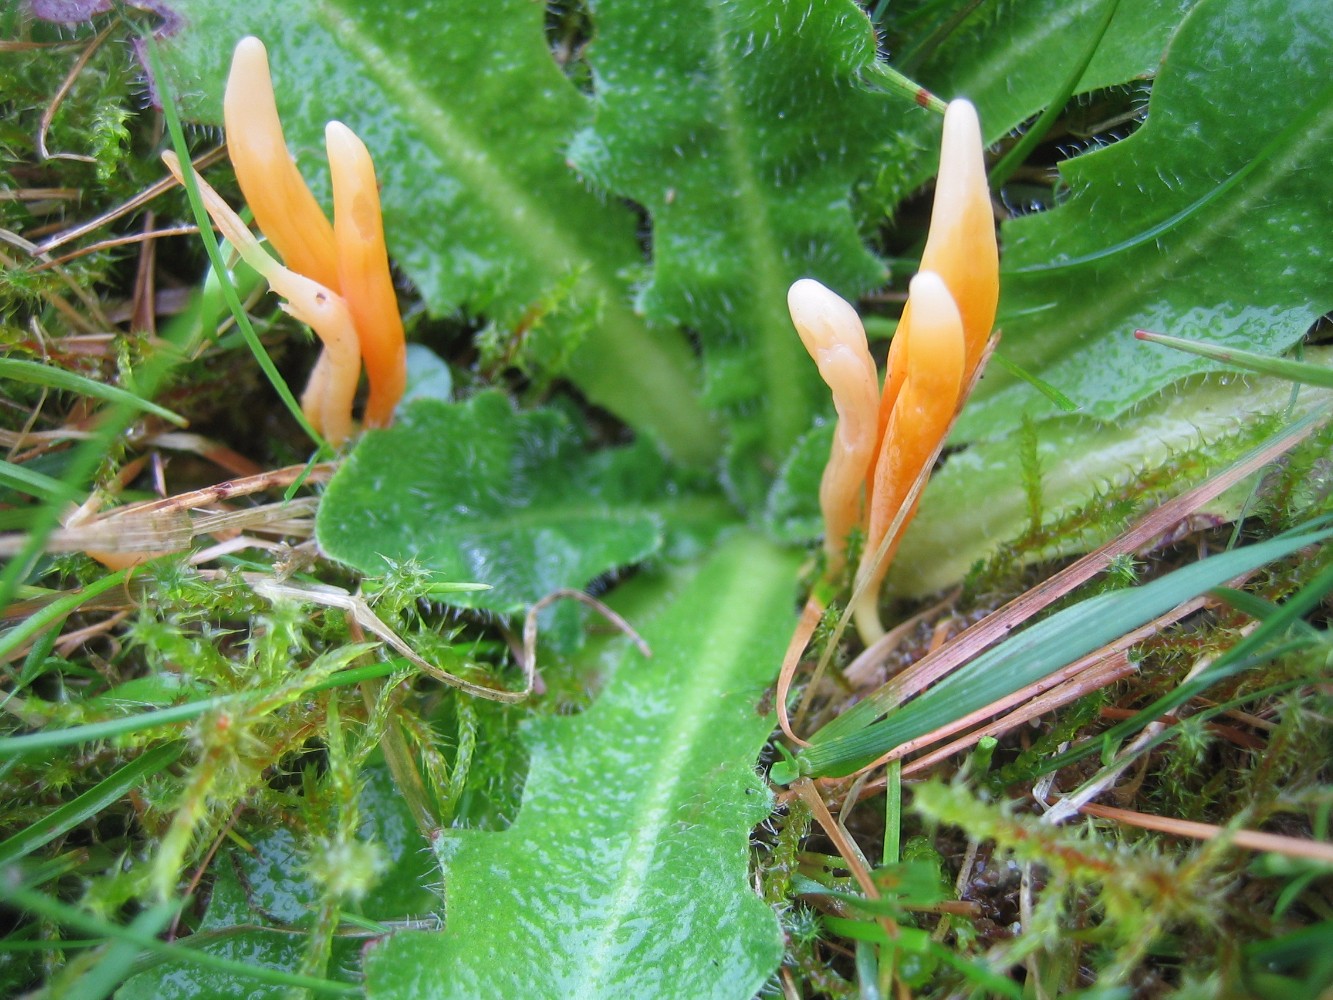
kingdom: Fungi
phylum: Basidiomycota
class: Agaricomycetes
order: Agaricales
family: Clavariaceae
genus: Clavulinopsis
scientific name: Clavulinopsis
